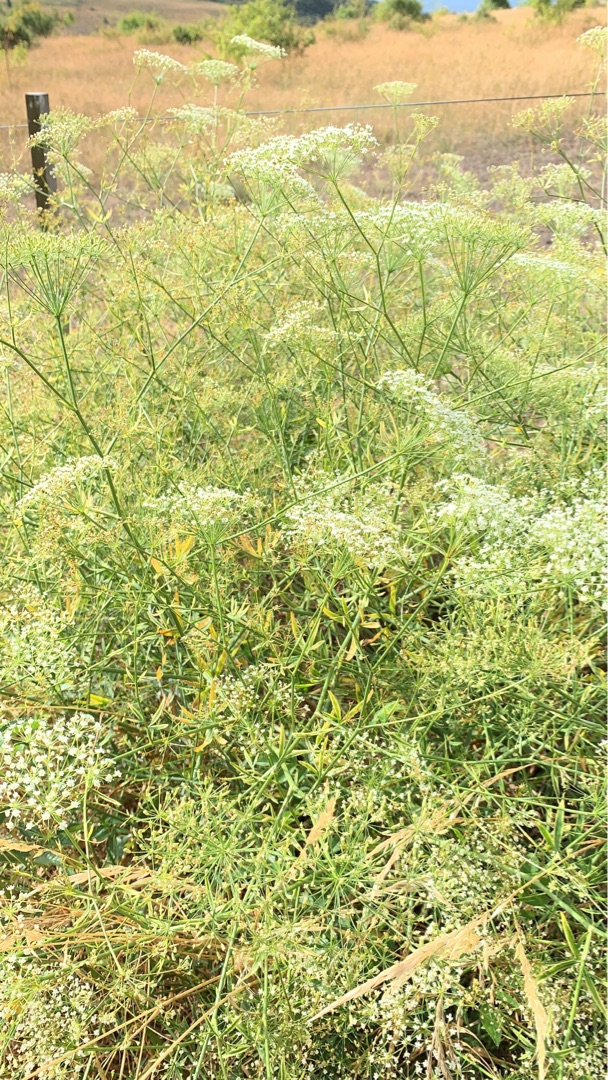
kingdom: Plantae
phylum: Tracheophyta
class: Magnoliopsida
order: Apiales
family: Apiaceae
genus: Falcaria
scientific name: Falcaria vulgaris
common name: Seglblad
